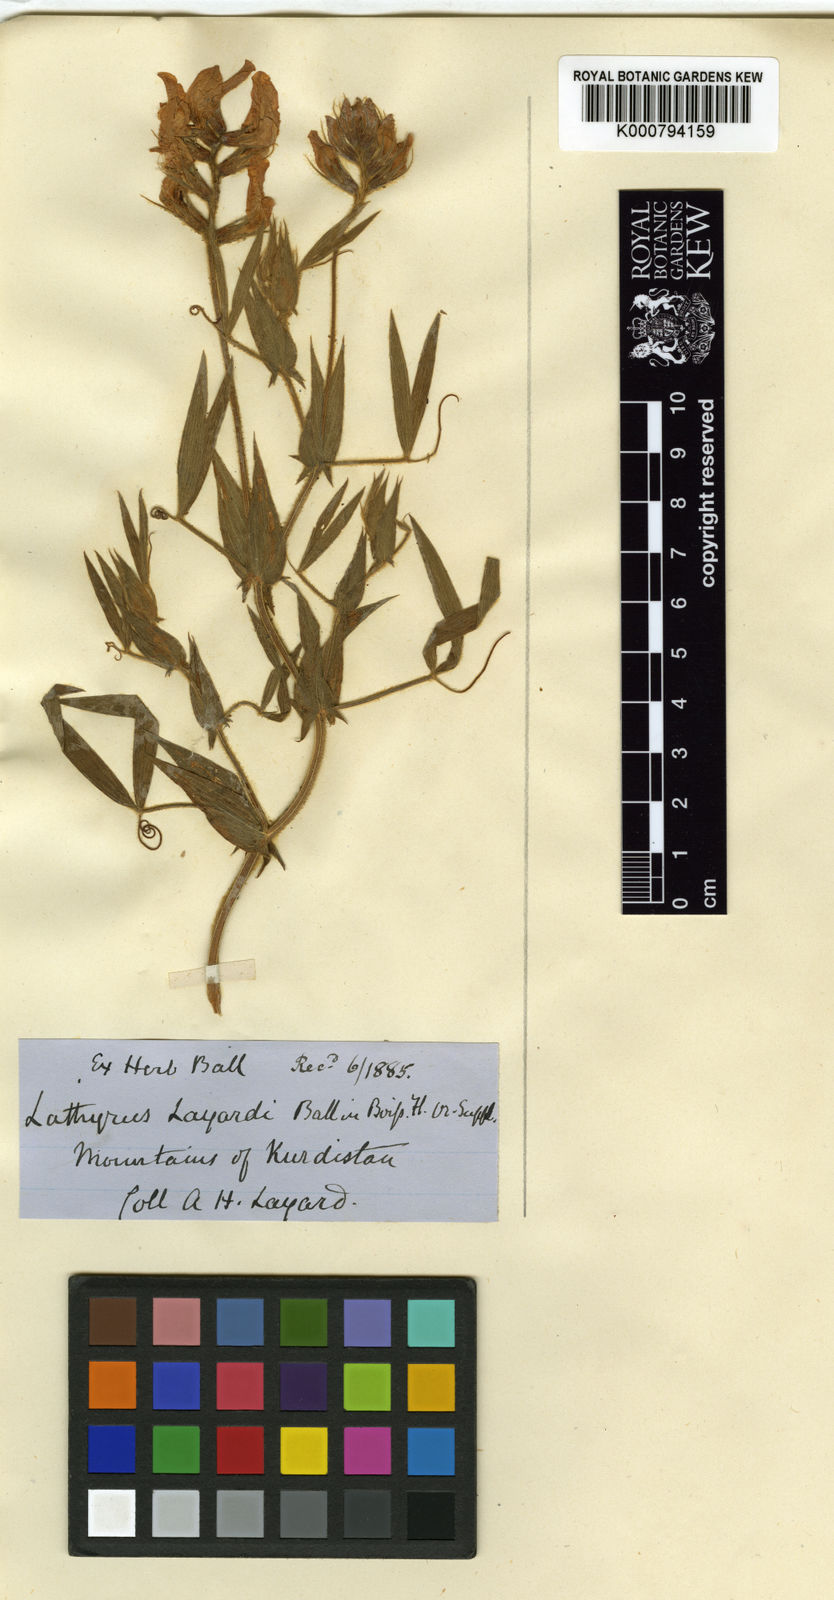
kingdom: Plantae
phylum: Tracheophyta
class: Magnoliopsida
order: Fabales
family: Fabaceae
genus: Lathyrus
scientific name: Lathyrus layardii
